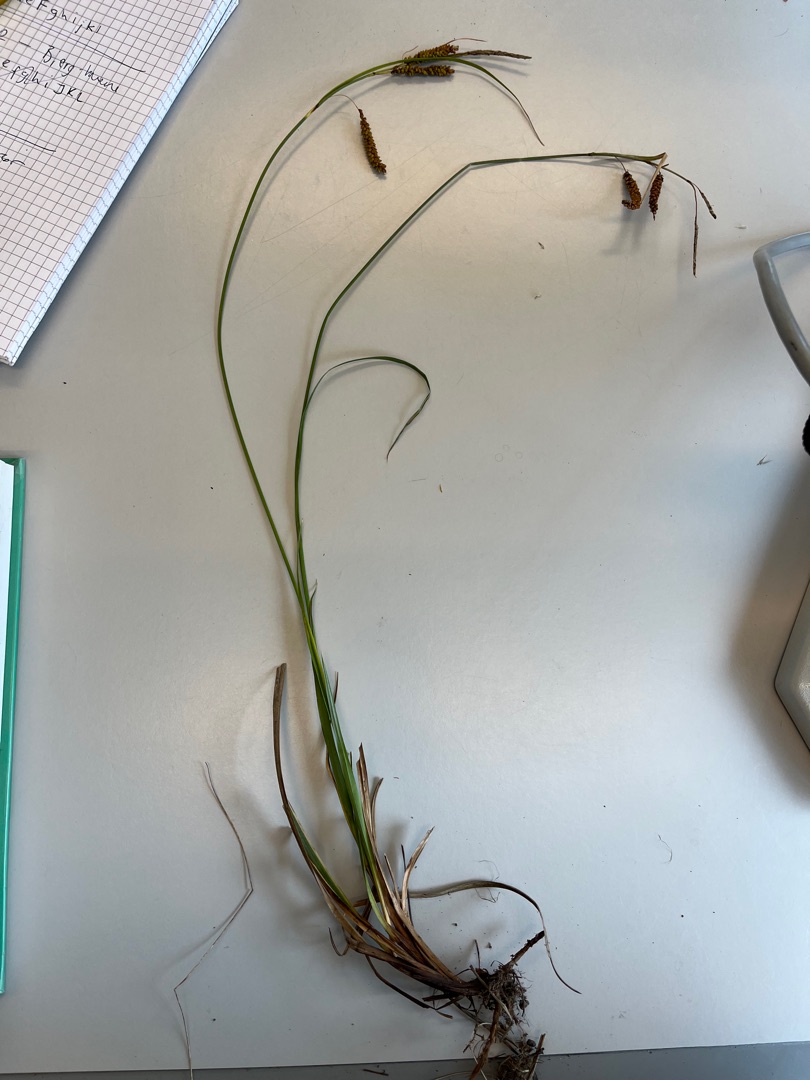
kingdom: Plantae
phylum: Tracheophyta
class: Liliopsida
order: Poales
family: Cyperaceae
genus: Carex
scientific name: Carex flacca
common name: Blågrøn star
